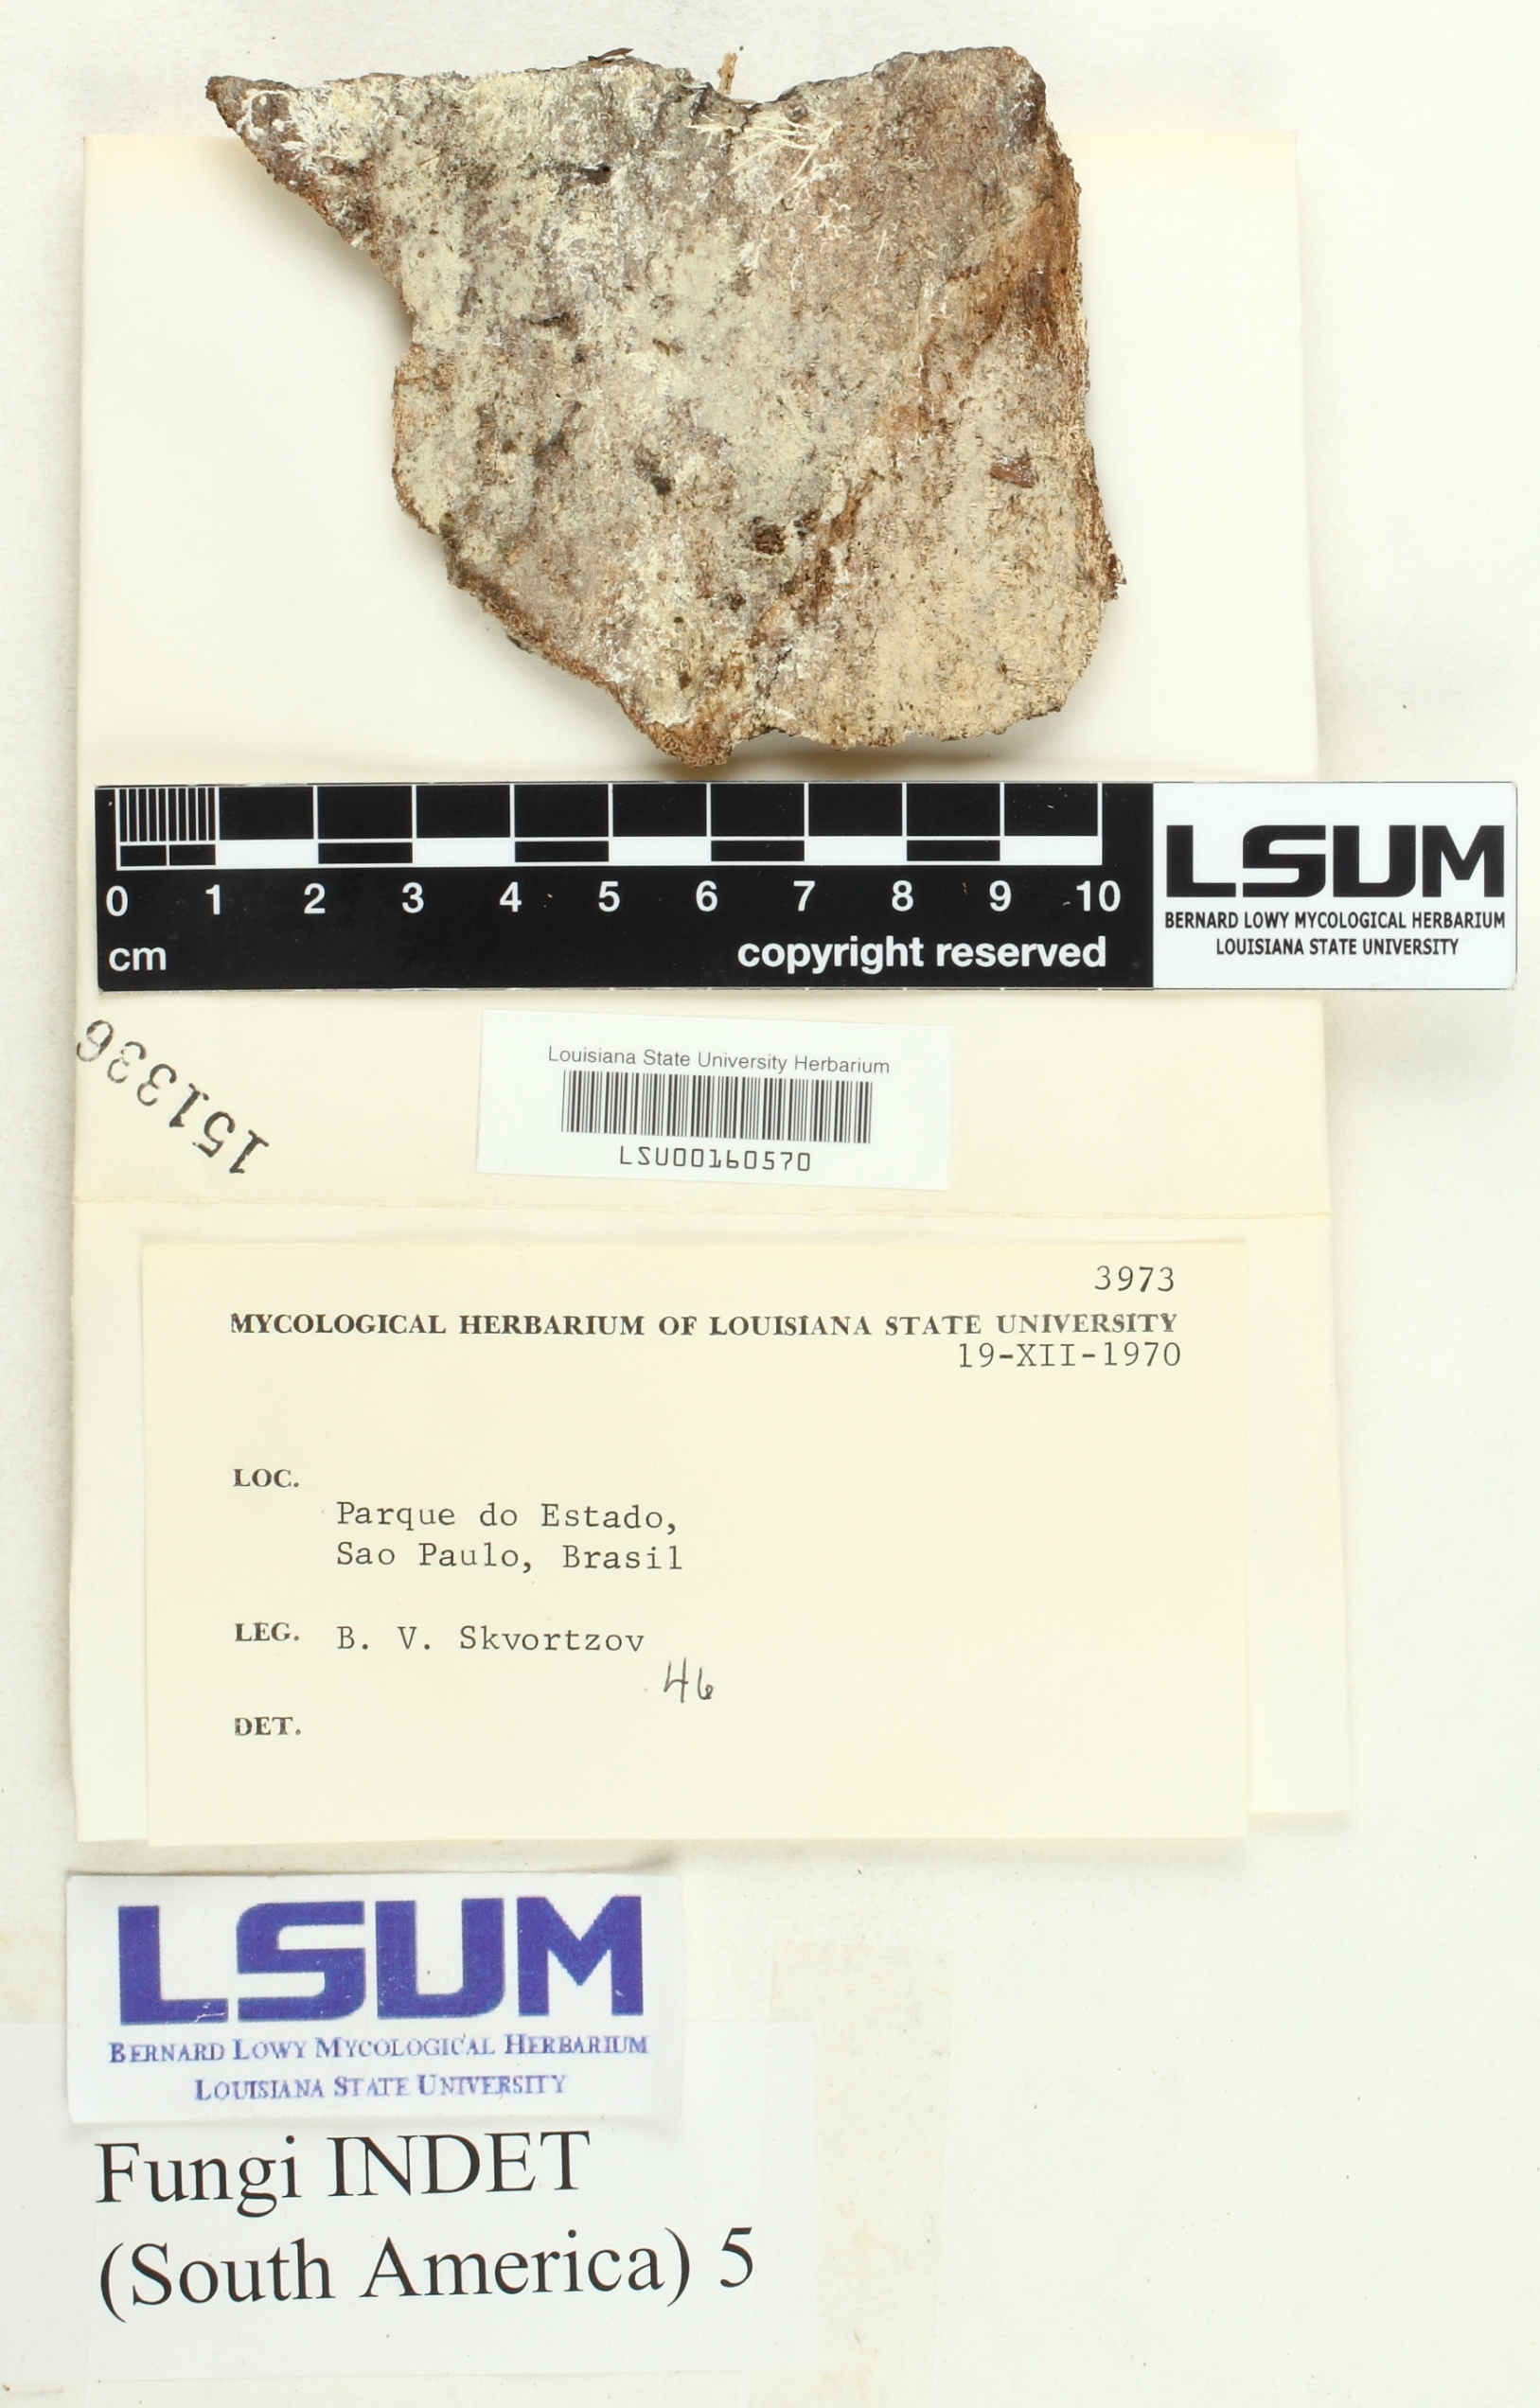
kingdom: Fungi
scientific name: Fungi
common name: Fungi
